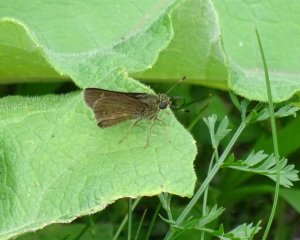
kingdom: Animalia
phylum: Arthropoda
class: Insecta
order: Lepidoptera
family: Hesperiidae
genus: Euphyes
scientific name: Euphyes vestris
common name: Dun Skipper
